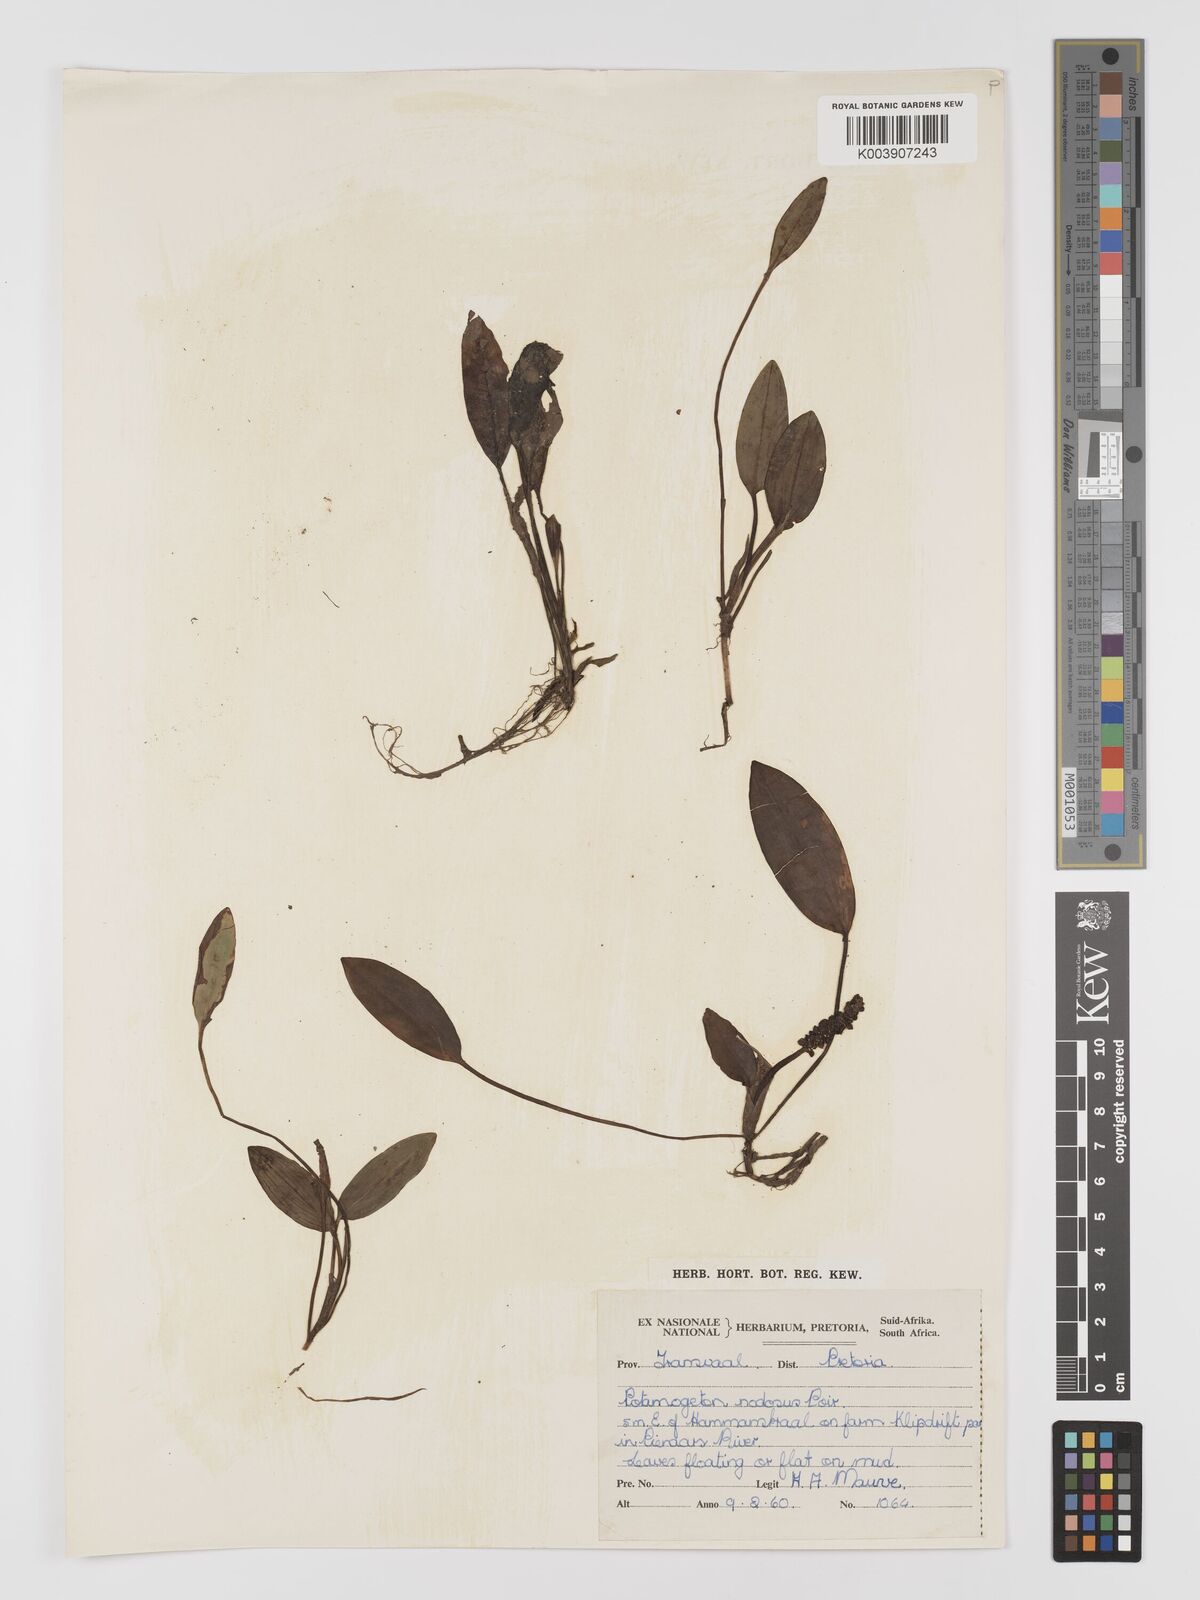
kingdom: Plantae
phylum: Tracheophyta
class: Liliopsida
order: Alismatales
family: Potamogetonaceae
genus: Potamogeton
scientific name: Potamogeton nodosus
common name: Loddon pondweed
